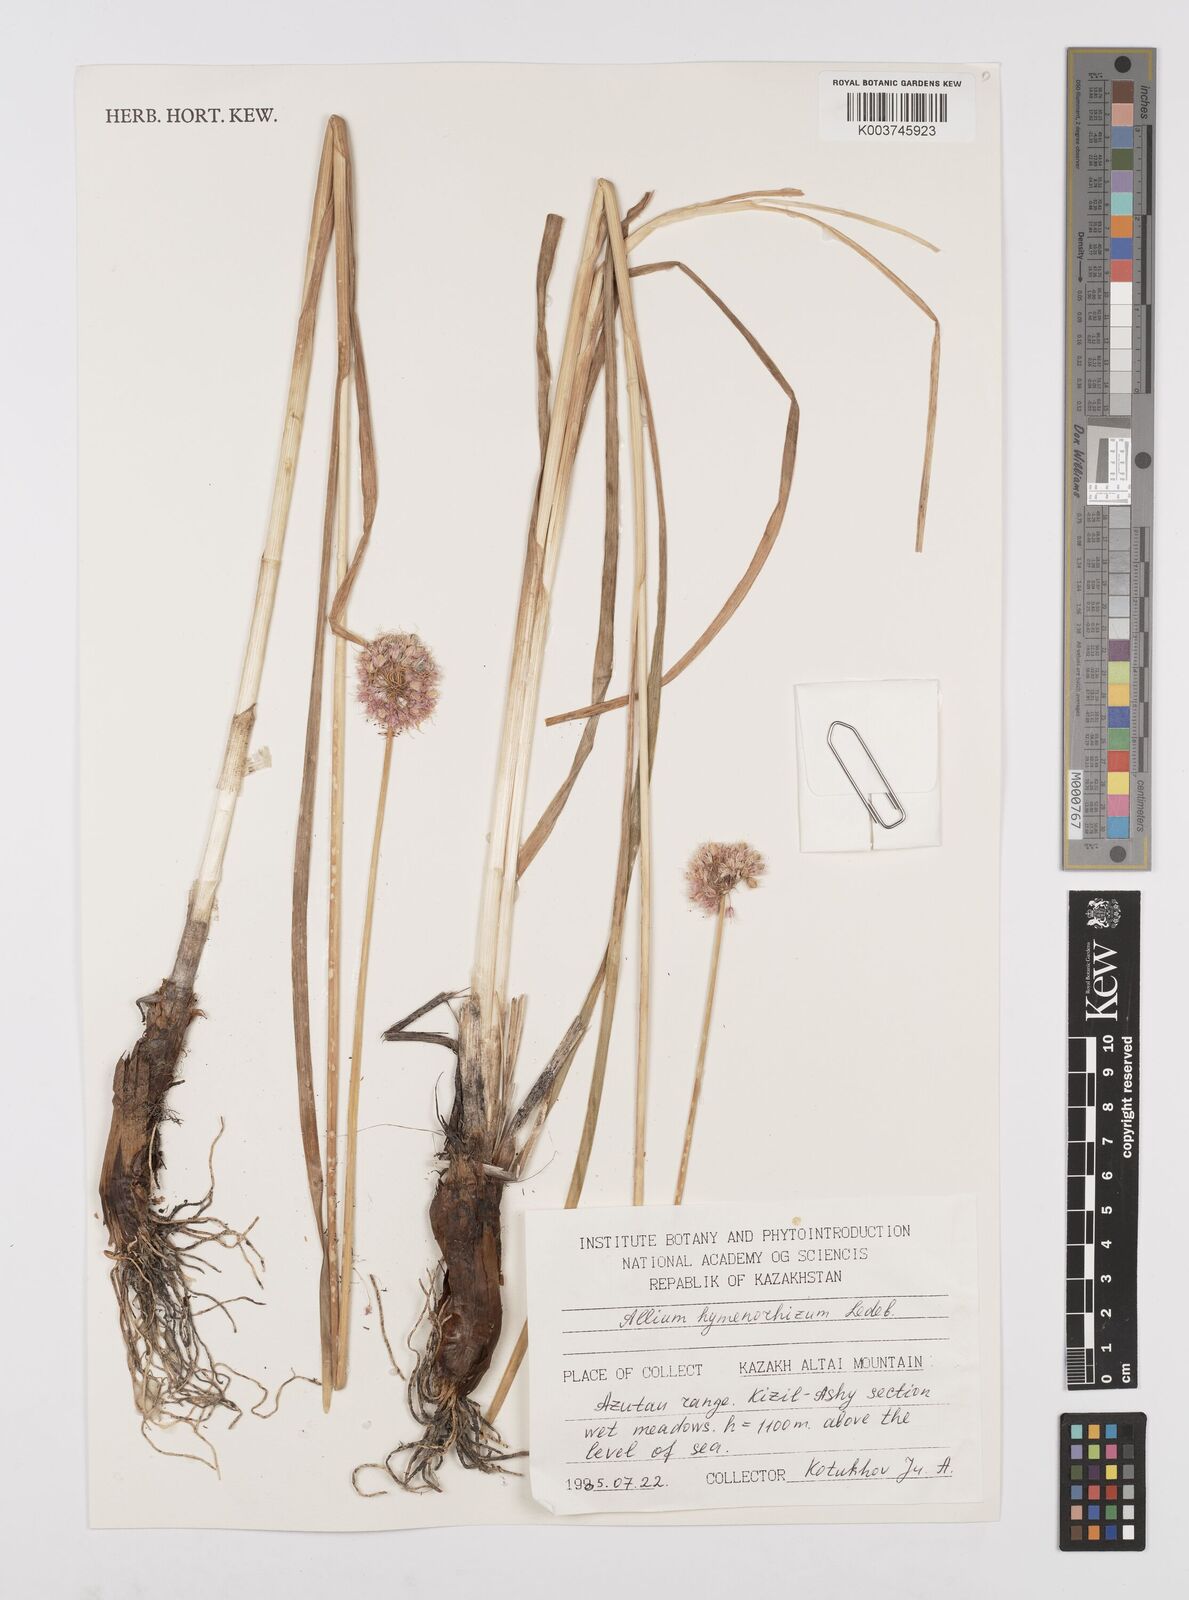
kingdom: Plantae
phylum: Tracheophyta
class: Liliopsida
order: Asparagales
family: Amaryllidaceae
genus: Allium
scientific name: Allium hymenorhizum
